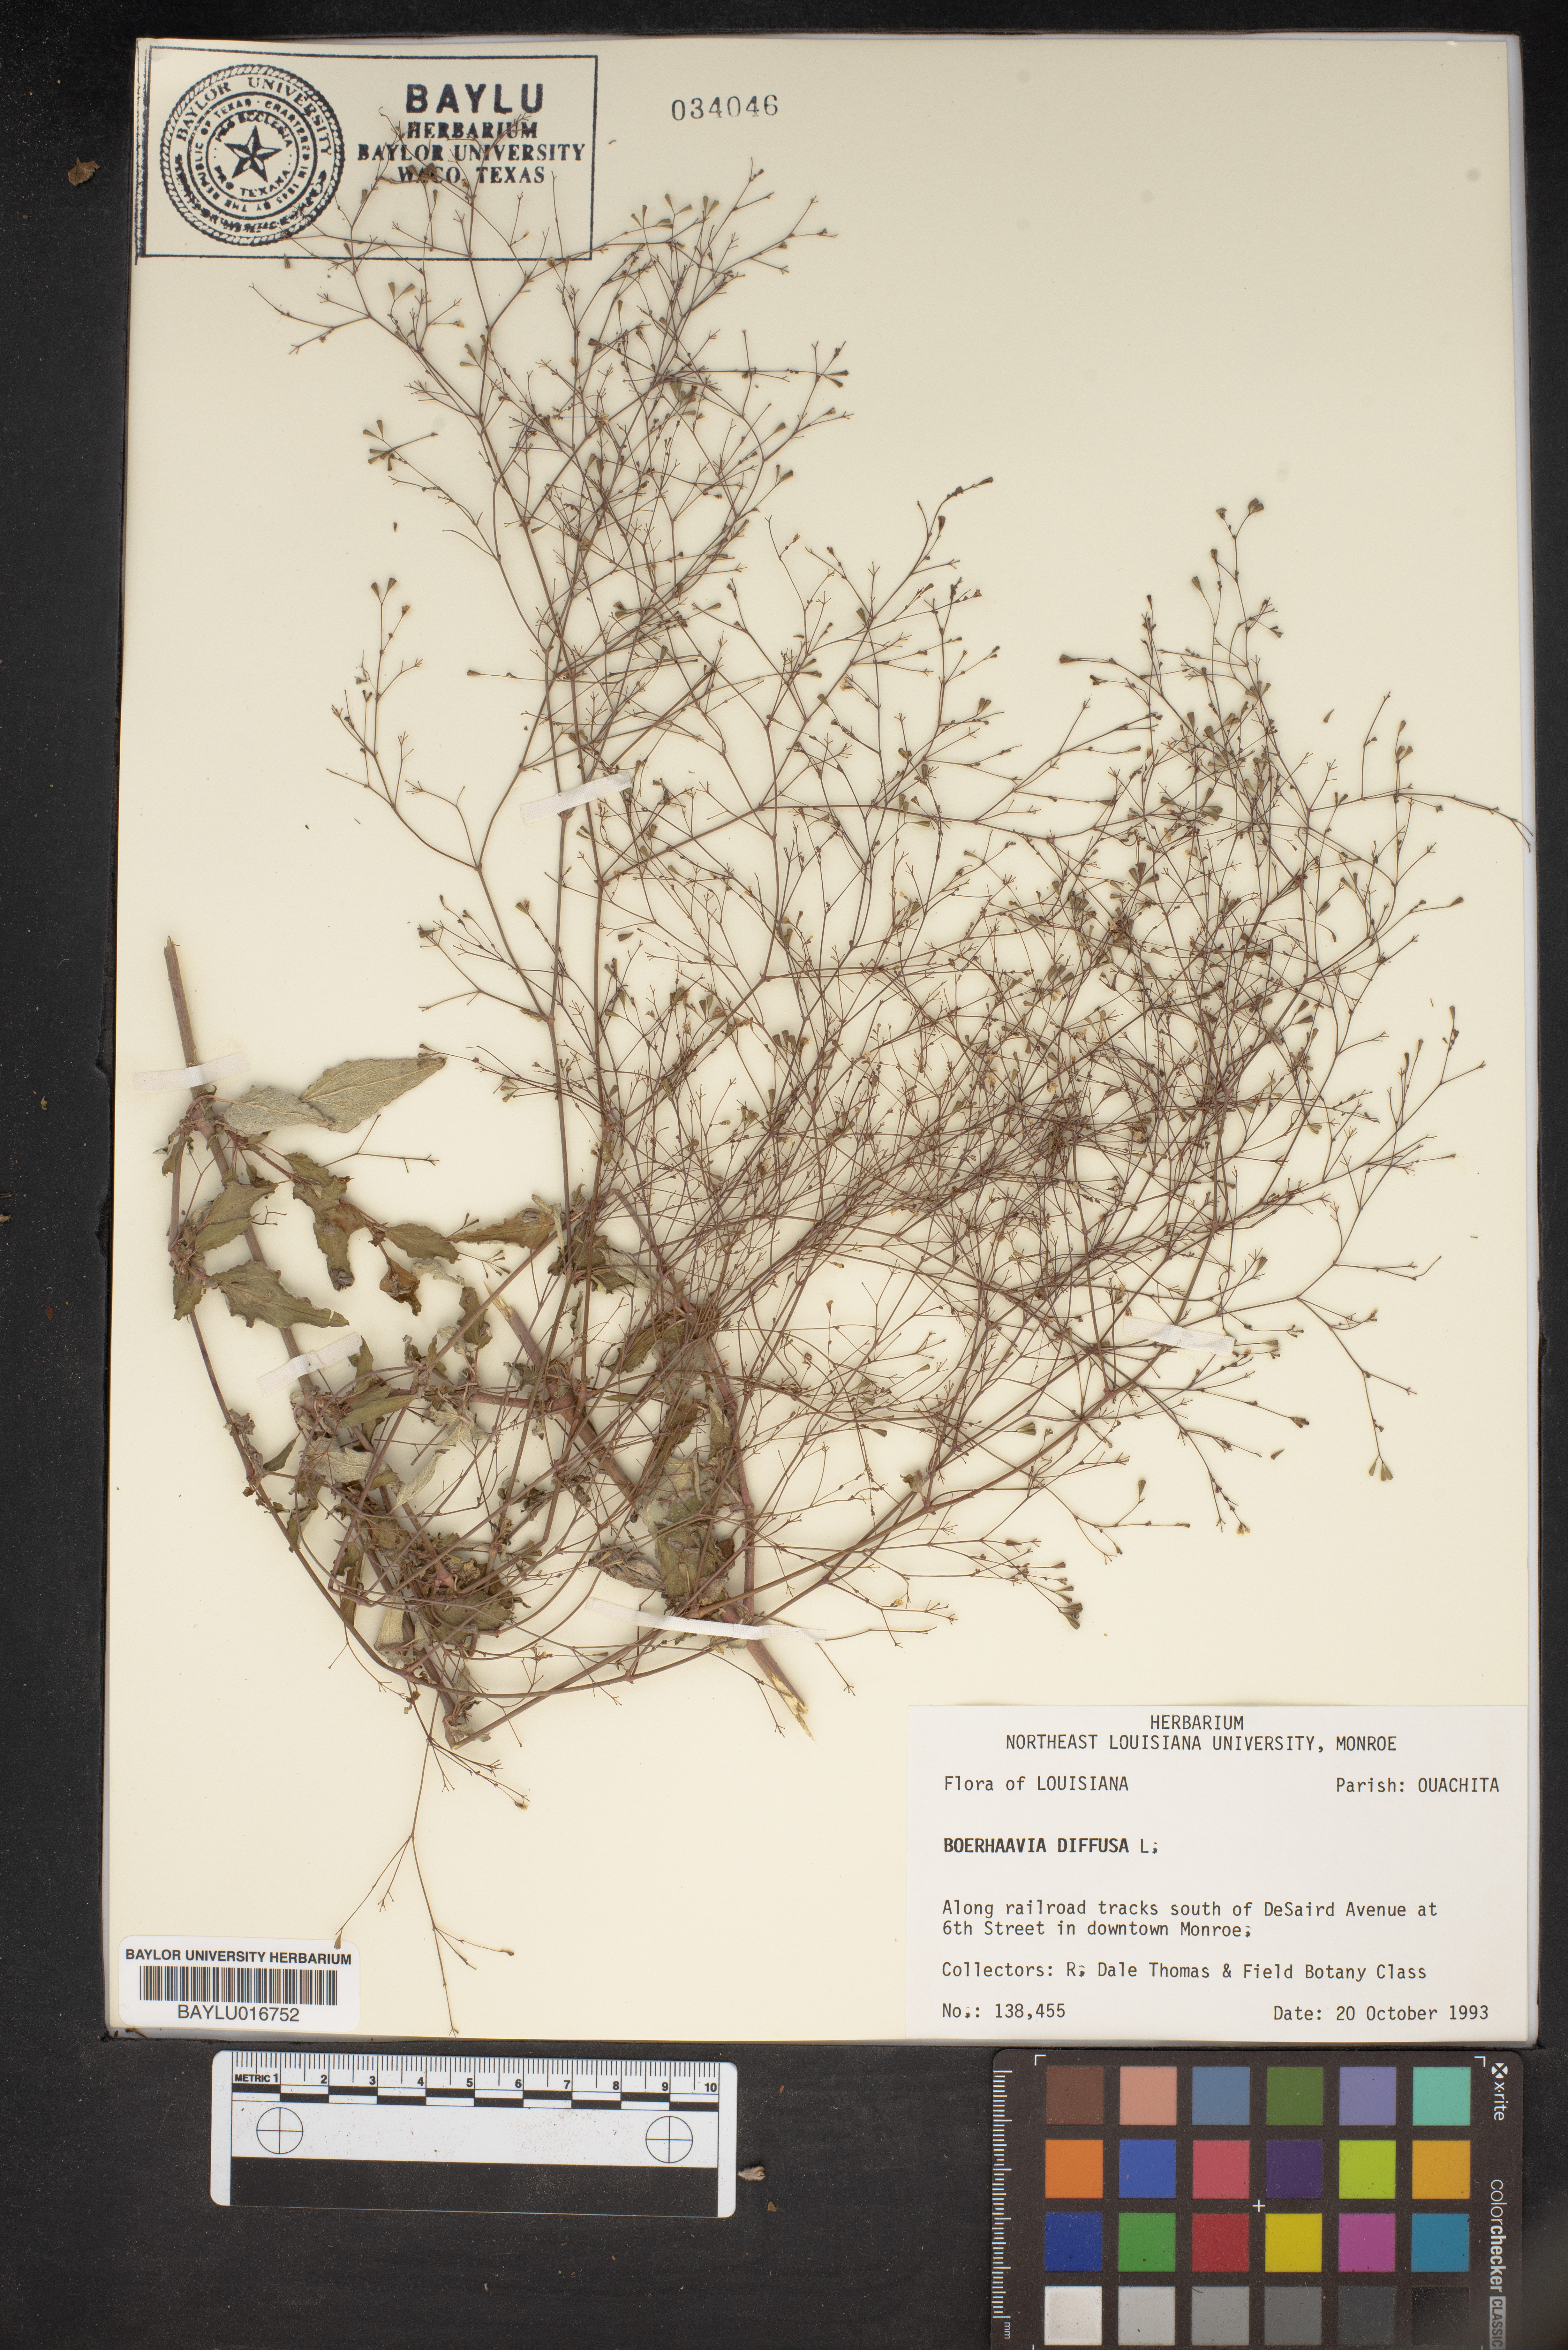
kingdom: Plantae
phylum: Tracheophyta
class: Magnoliopsida
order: Caryophyllales
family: Nyctaginaceae
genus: Boerhavia
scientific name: Boerhavia diffusa
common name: Red spiderling
